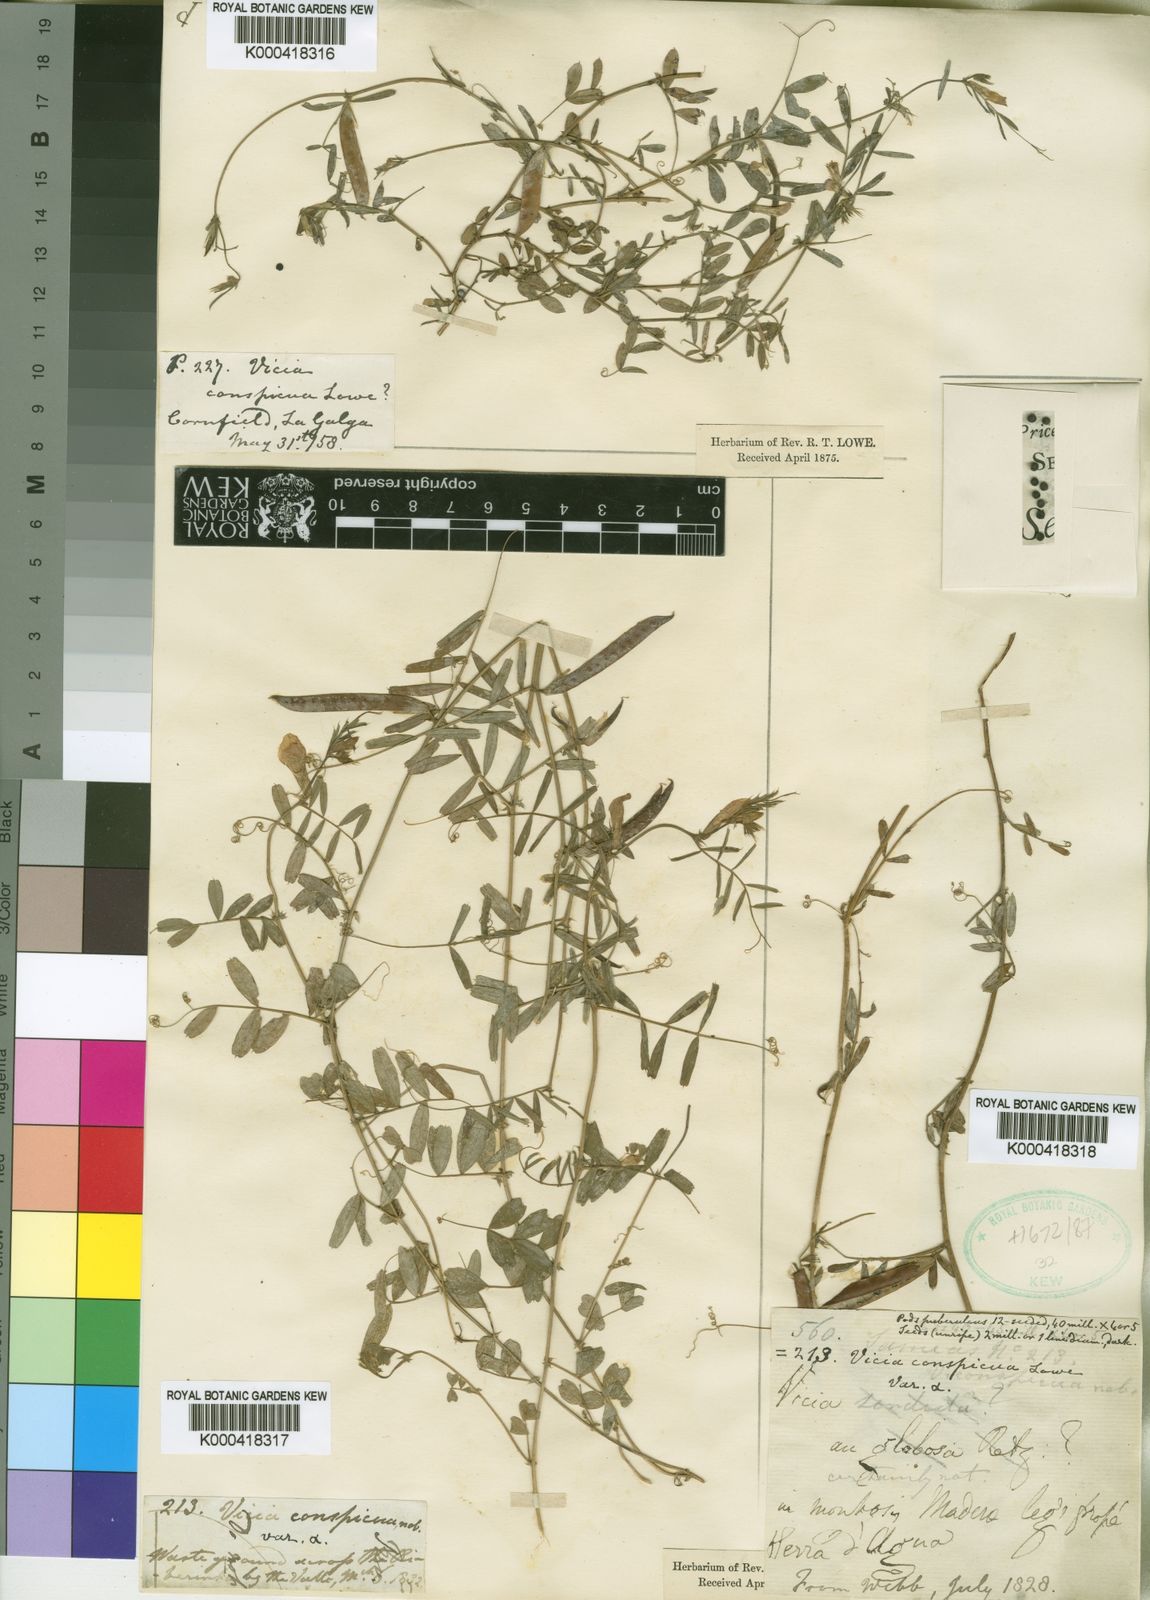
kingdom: Plantae
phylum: Tracheophyta
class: Magnoliopsida
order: Fabales
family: Fabaceae
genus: Vicia
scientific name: Vicia sativa
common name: Garden vetch
